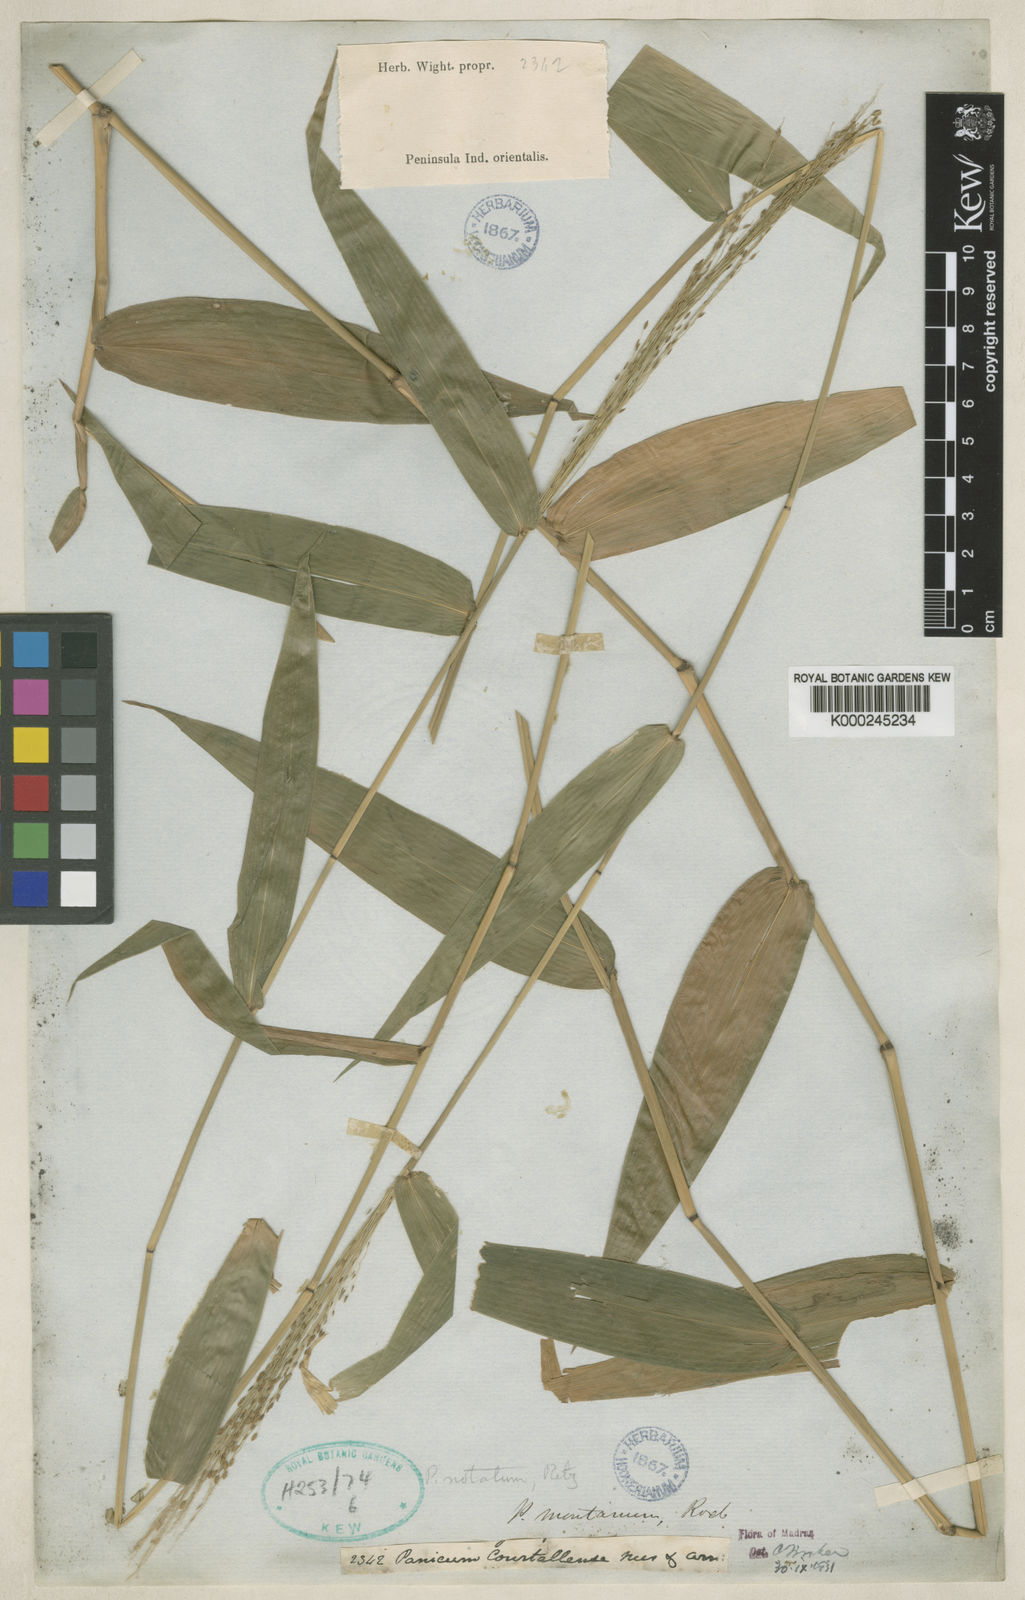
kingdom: Plantae
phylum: Tracheophyta
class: Liliopsida
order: Poales
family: Poaceae
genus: Panicum
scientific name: Panicum notatum
